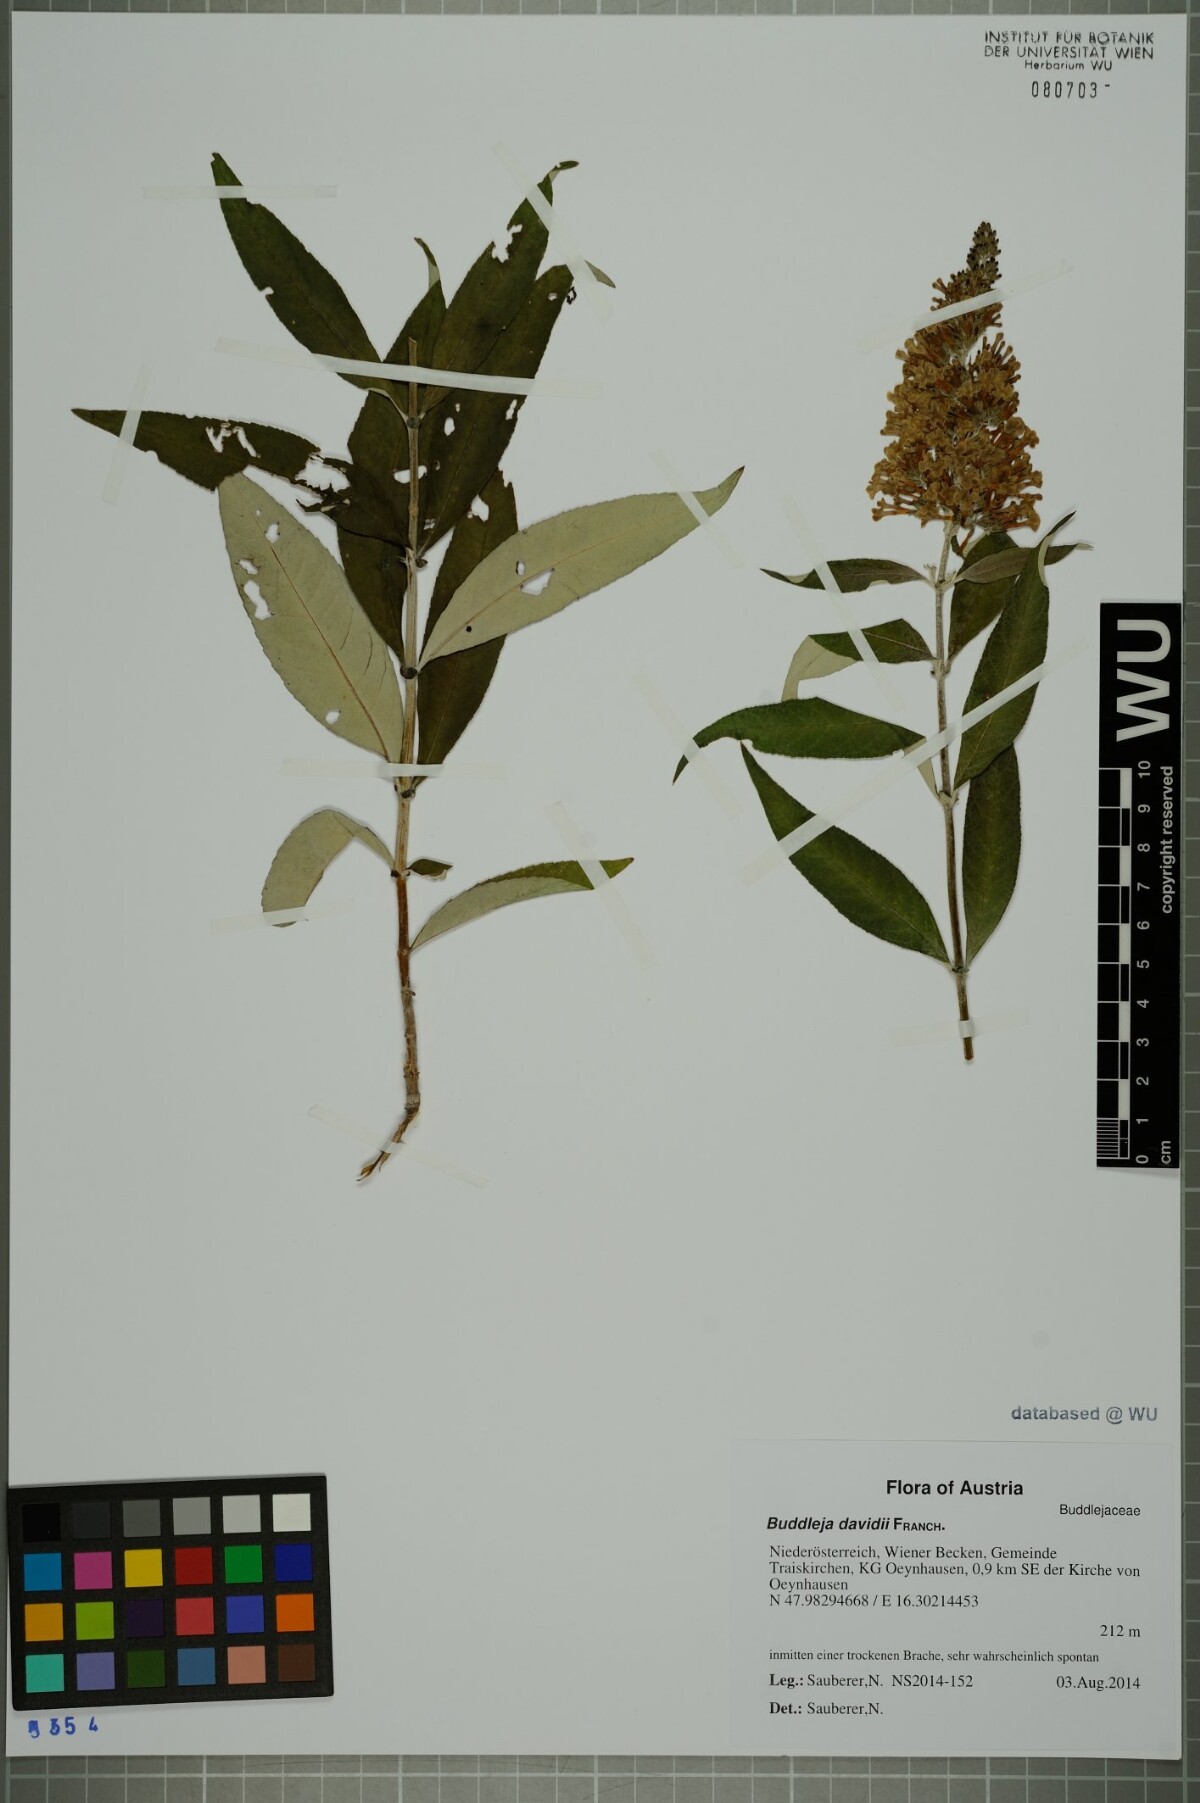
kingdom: Plantae
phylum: Tracheophyta
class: Magnoliopsida
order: Lamiales
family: Scrophulariaceae
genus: Buddleja
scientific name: Buddleja davidii
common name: Butterfly-bush
